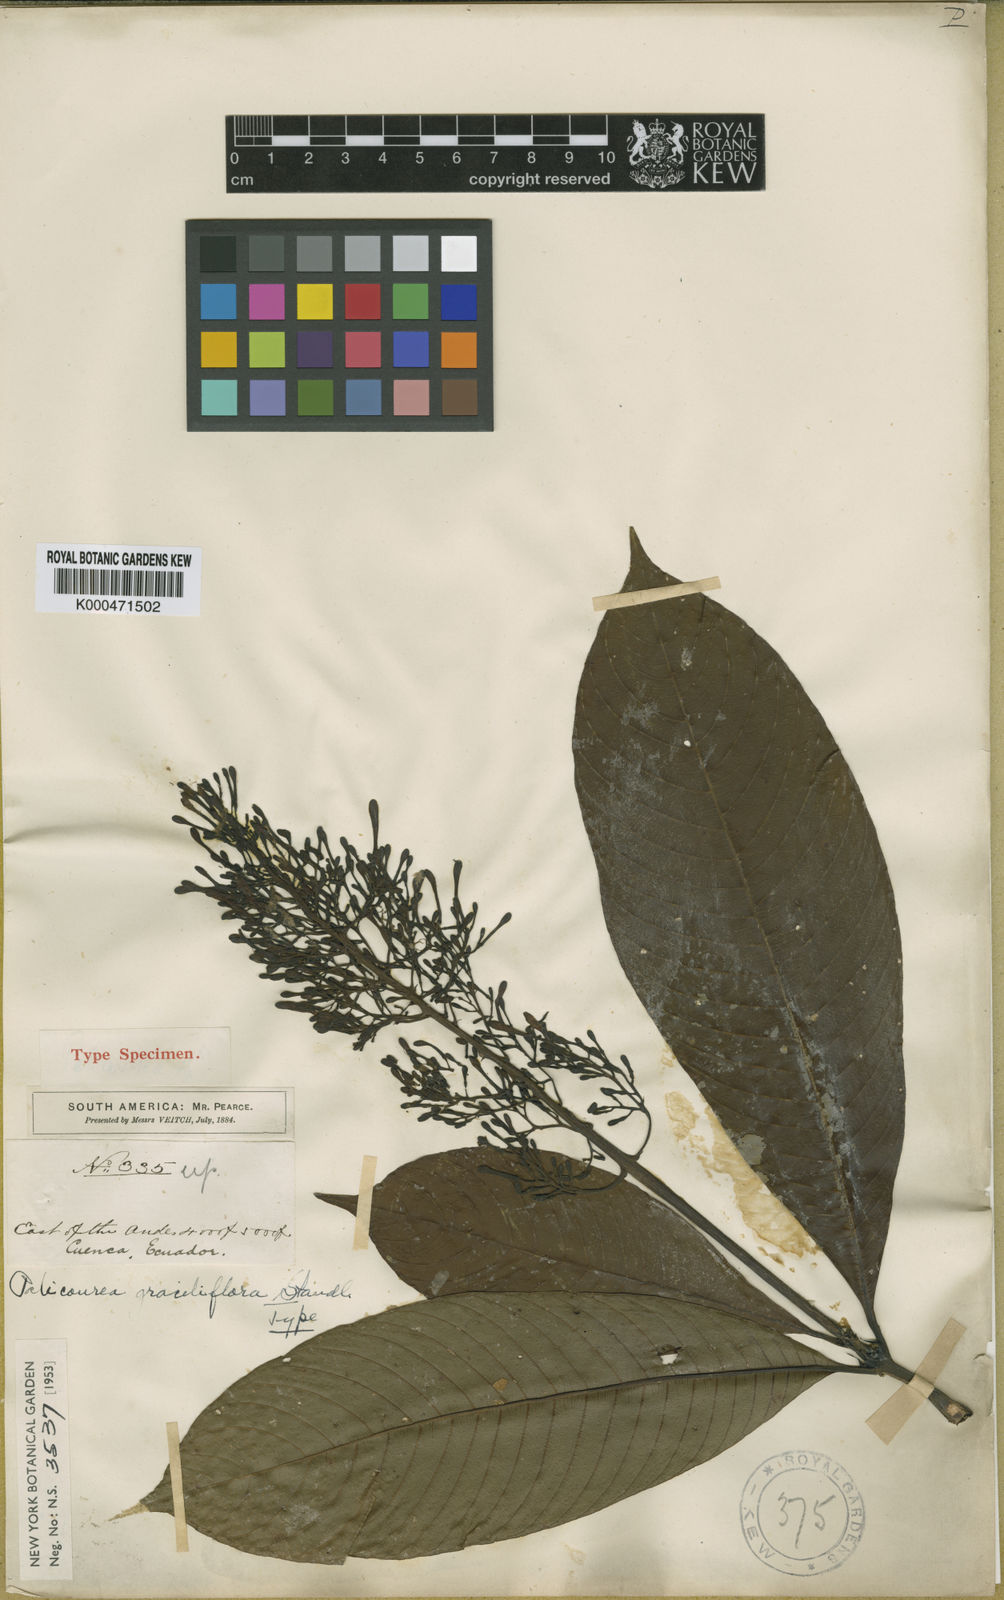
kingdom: Plantae
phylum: Tracheophyta
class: Magnoliopsida
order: Gentianales
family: Rubiaceae
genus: Palicourea
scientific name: Palicourea hospitalis
